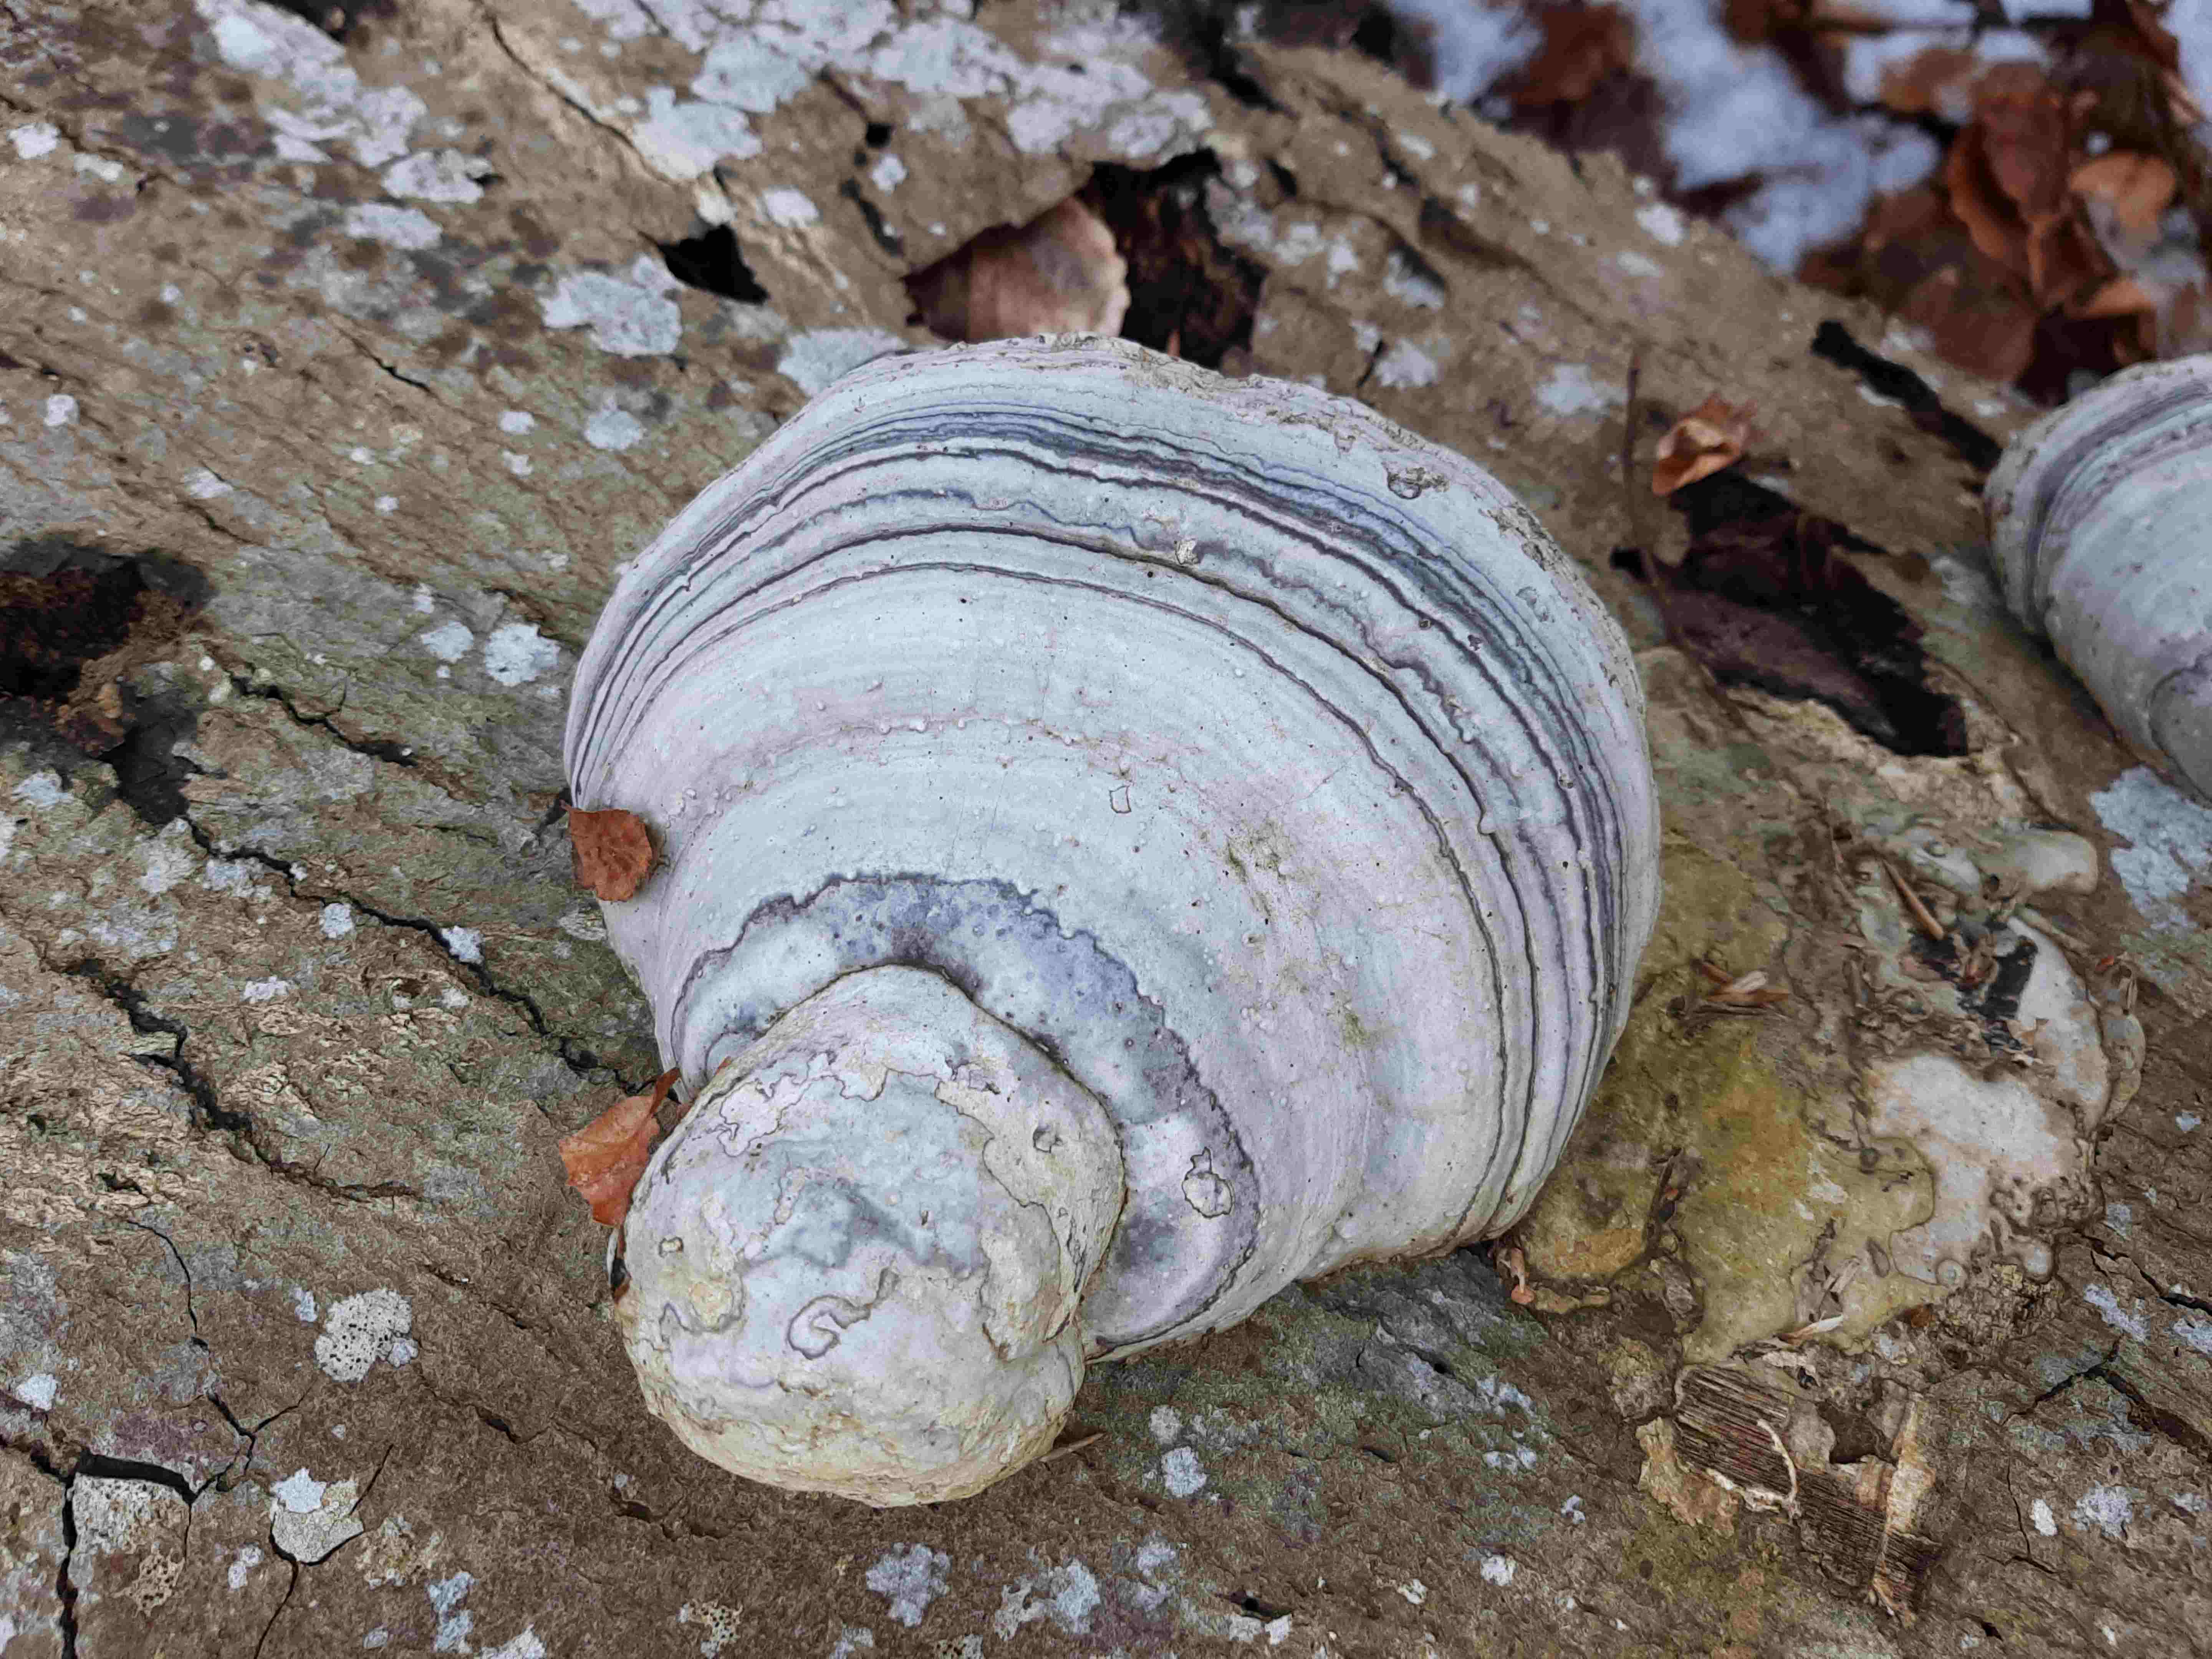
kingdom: Fungi
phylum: Basidiomycota
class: Agaricomycetes
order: Polyporales
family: Polyporaceae
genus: Fomes
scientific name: Fomes fomentarius
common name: tøndersvamp
